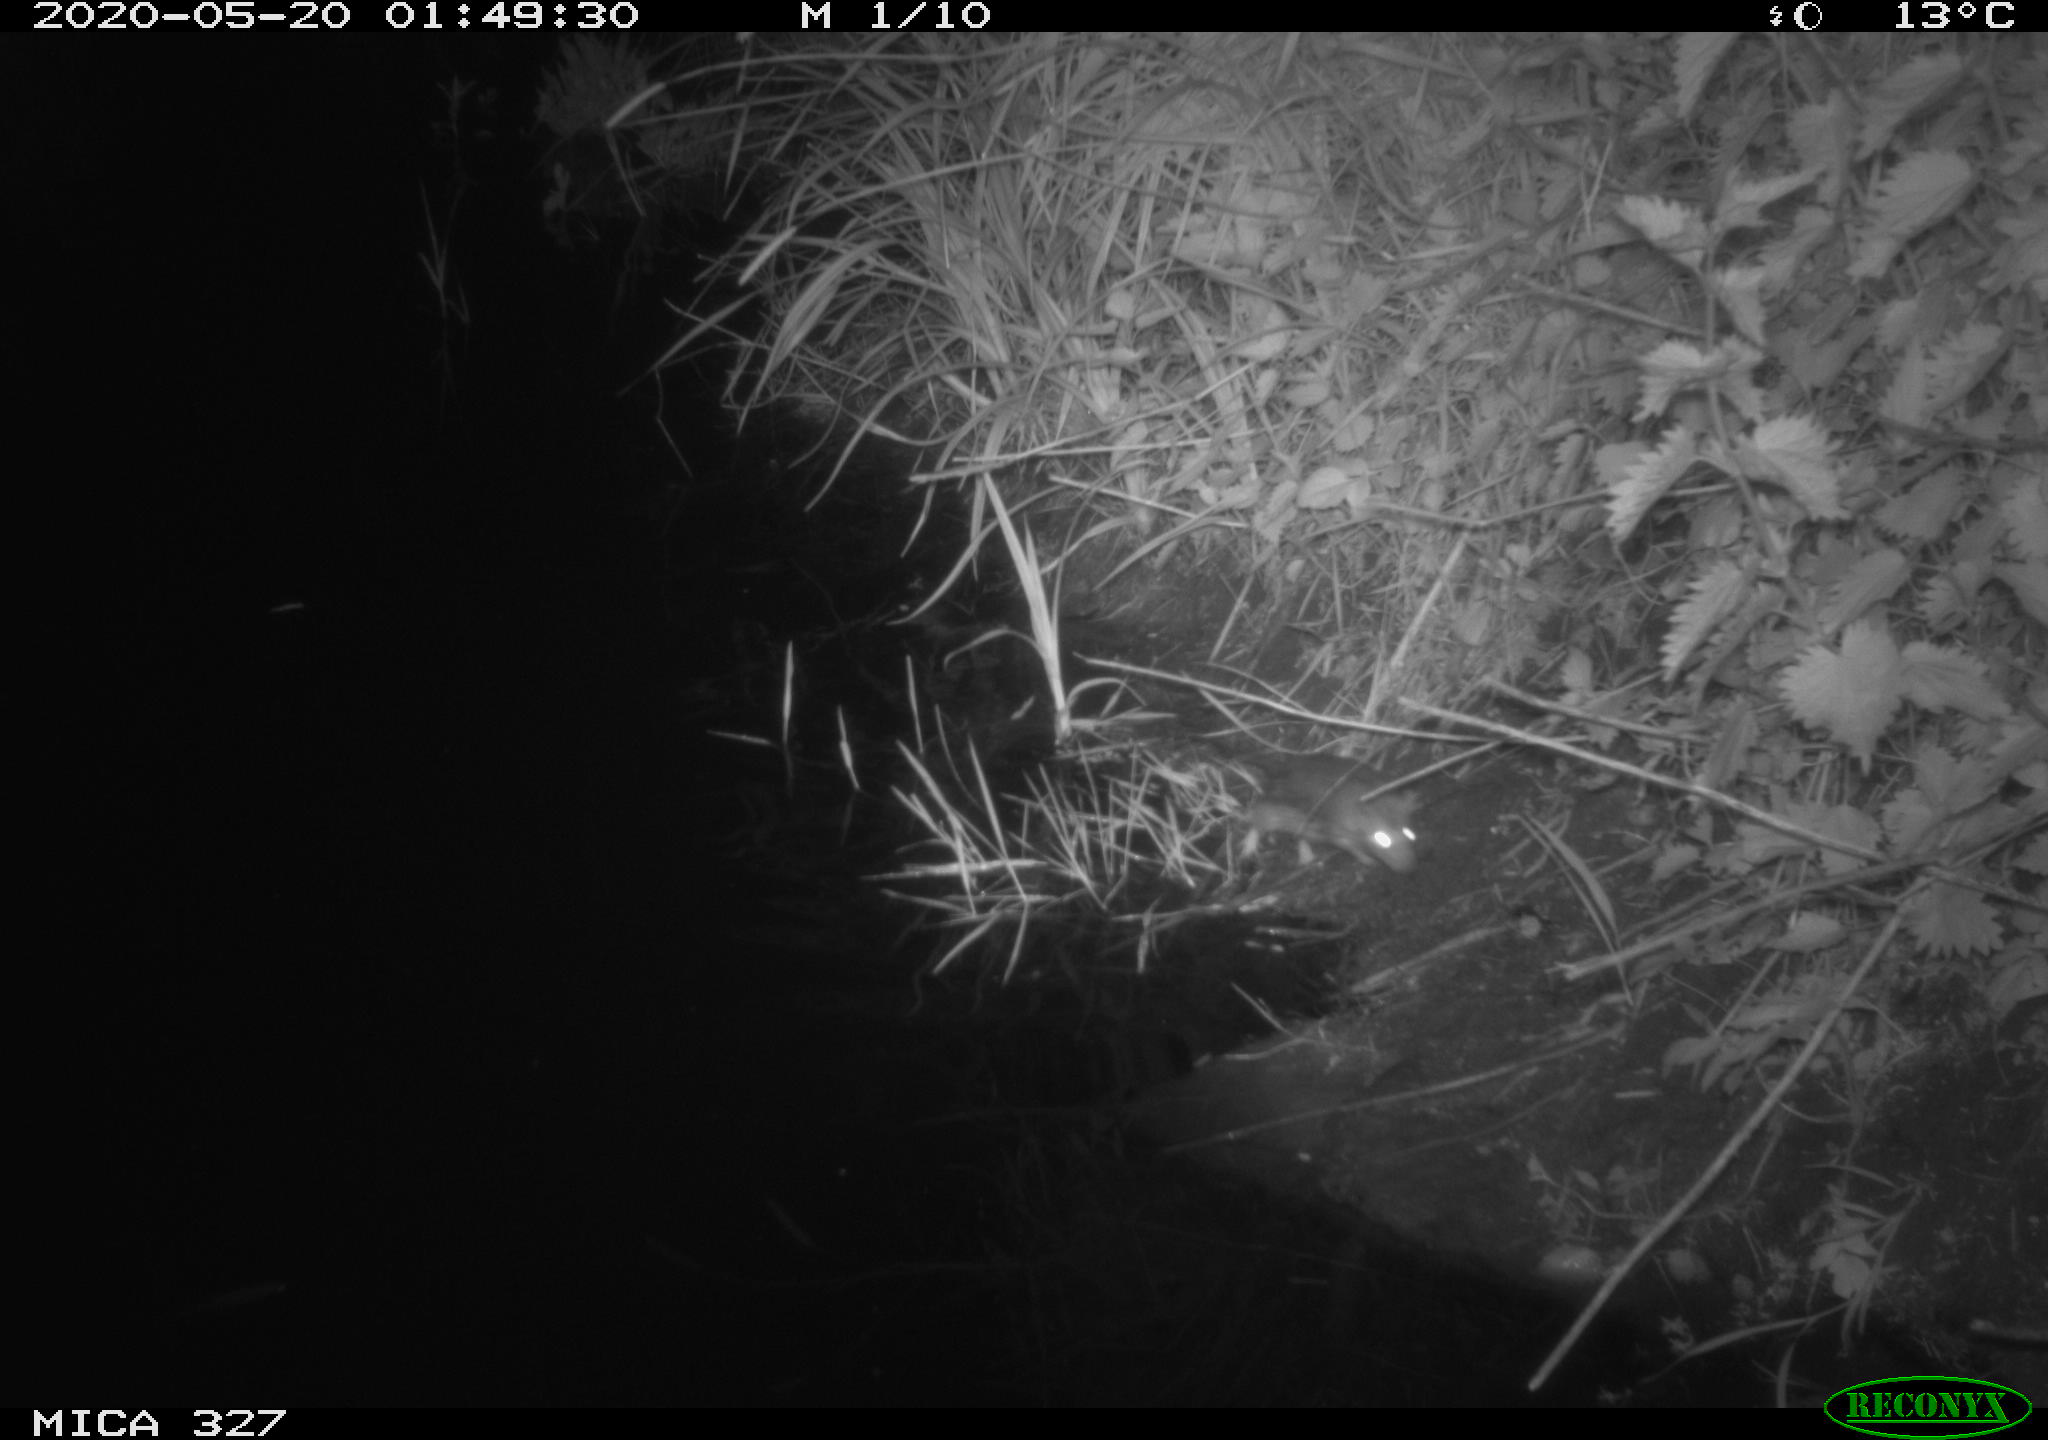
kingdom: Animalia
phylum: Chordata
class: Mammalia
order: Rodentia
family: Muridae
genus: Rattus
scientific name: Rattus norvegicus
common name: Brown rat
